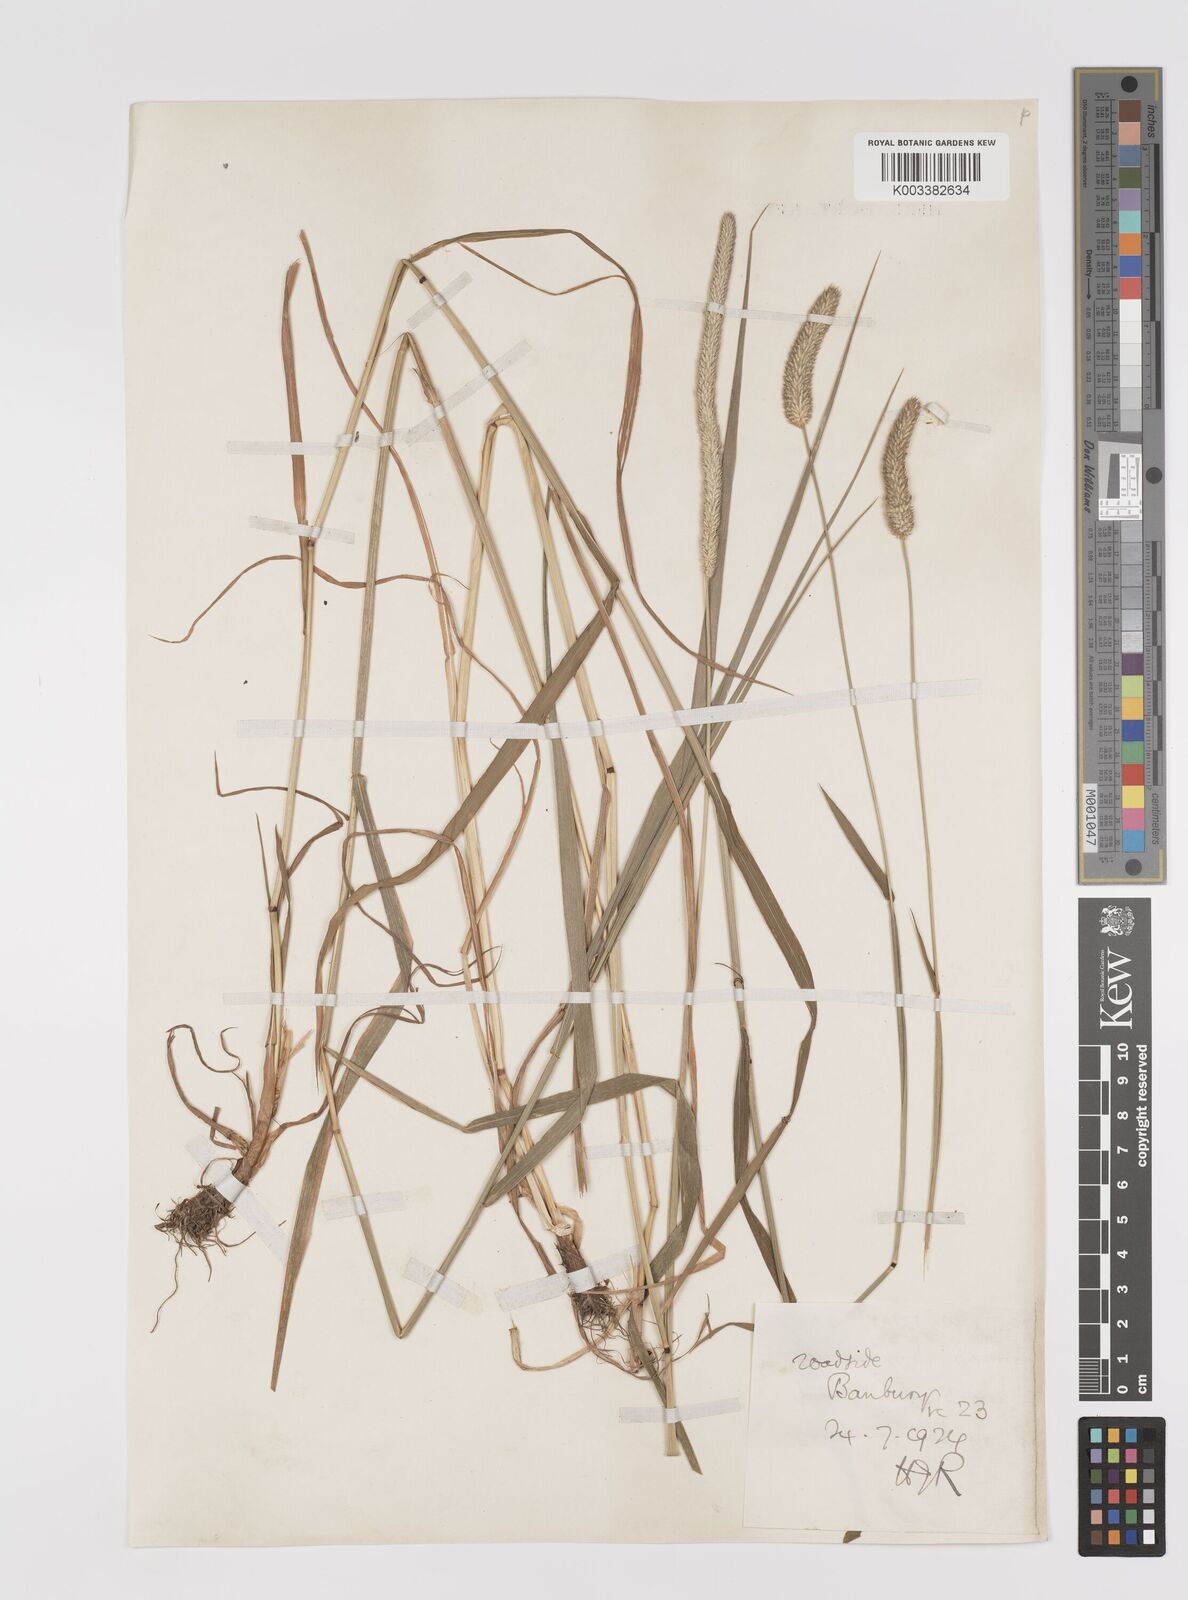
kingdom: Plantae
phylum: Tracheophyta
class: Liliopsida
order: Poales
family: Poaceae
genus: Phleum
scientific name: Phleum pratense
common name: Timothy grass
